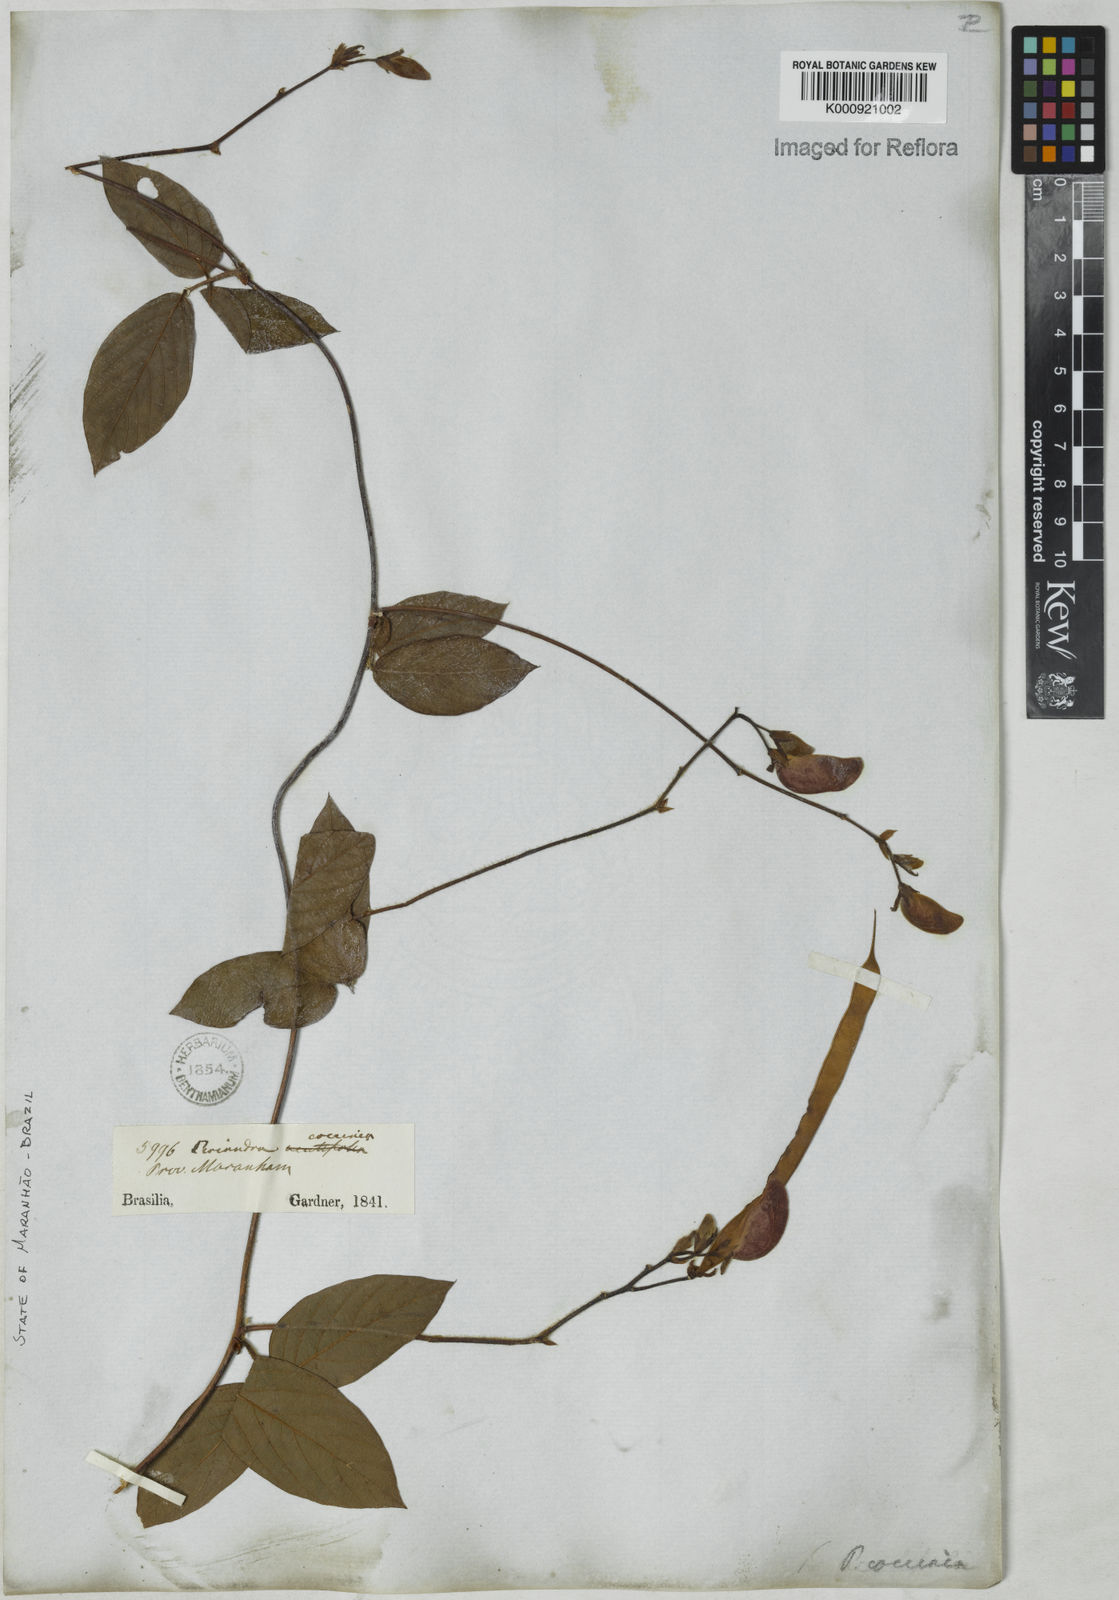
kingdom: Plantae
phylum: Tracheophyta
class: Magnoliopsida
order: Fabales
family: Fabaceae
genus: Periandra
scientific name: Periandra coccinea
